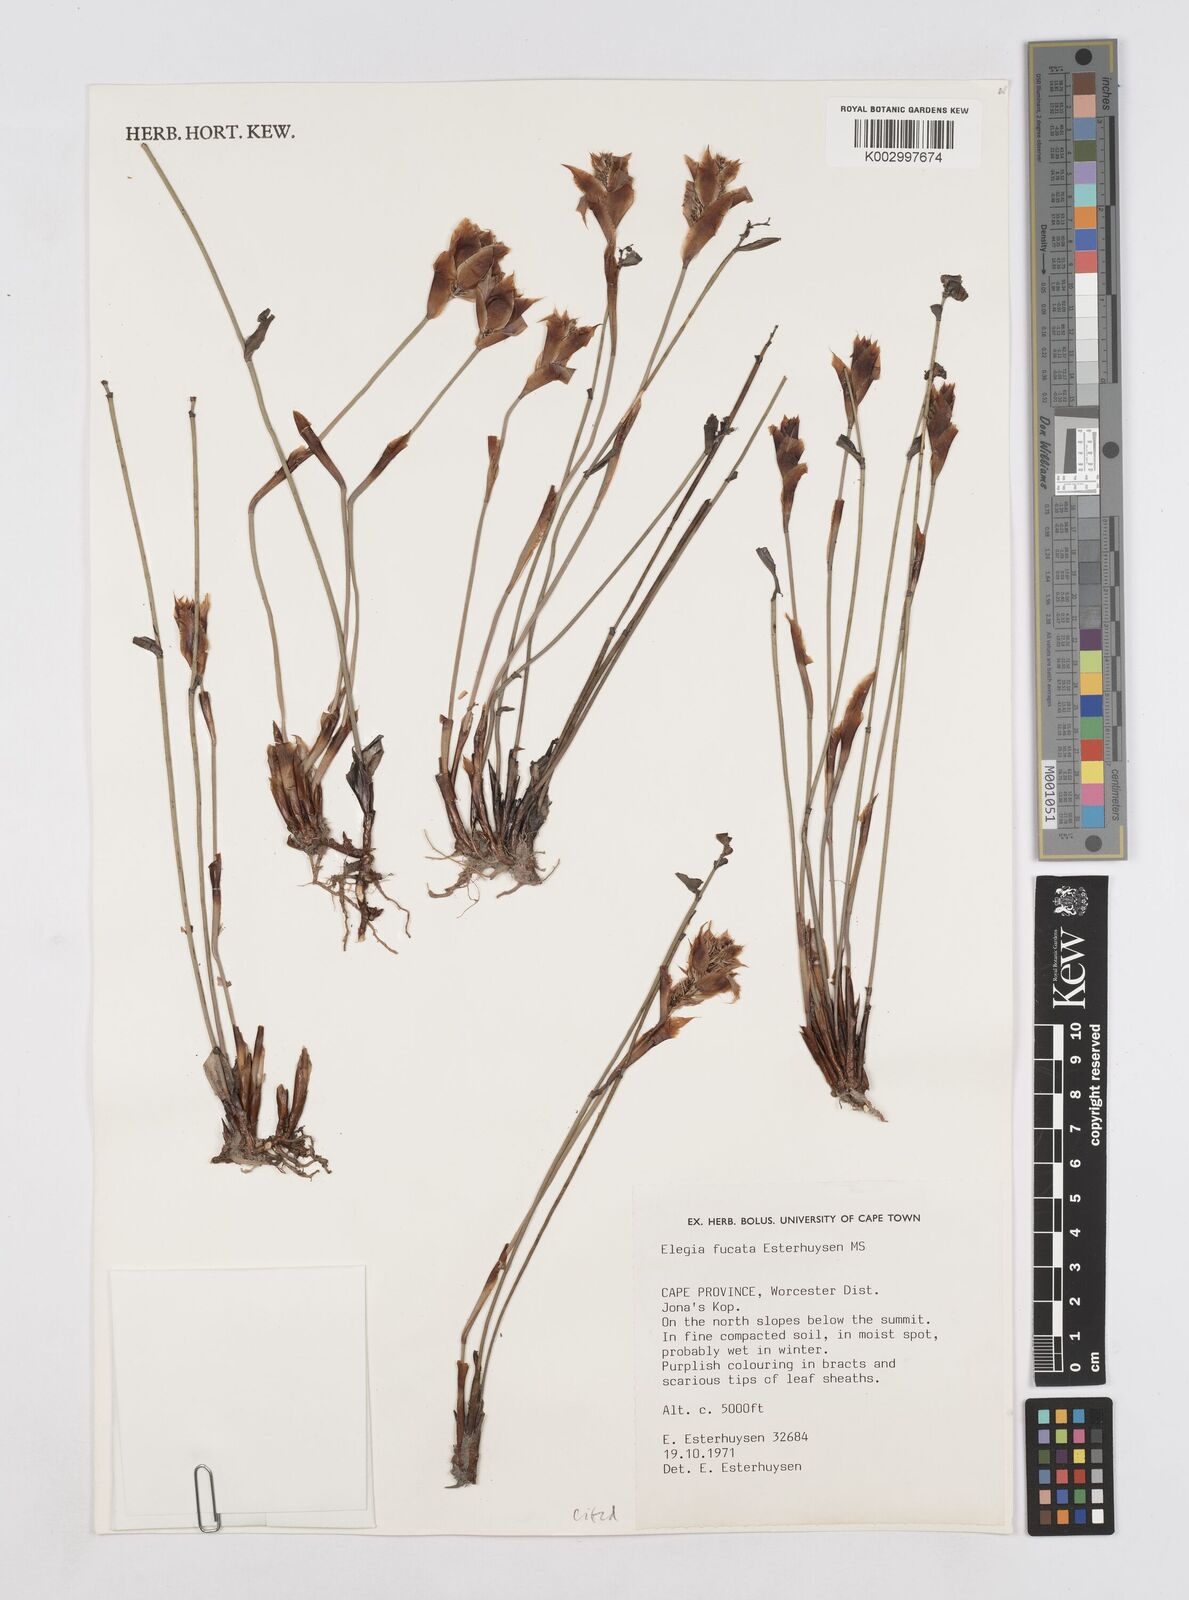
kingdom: Plantae
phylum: Tracheophyta
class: Liliopsida
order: Poales
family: Restionaceae
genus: Elegia
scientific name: Elegia fucata
